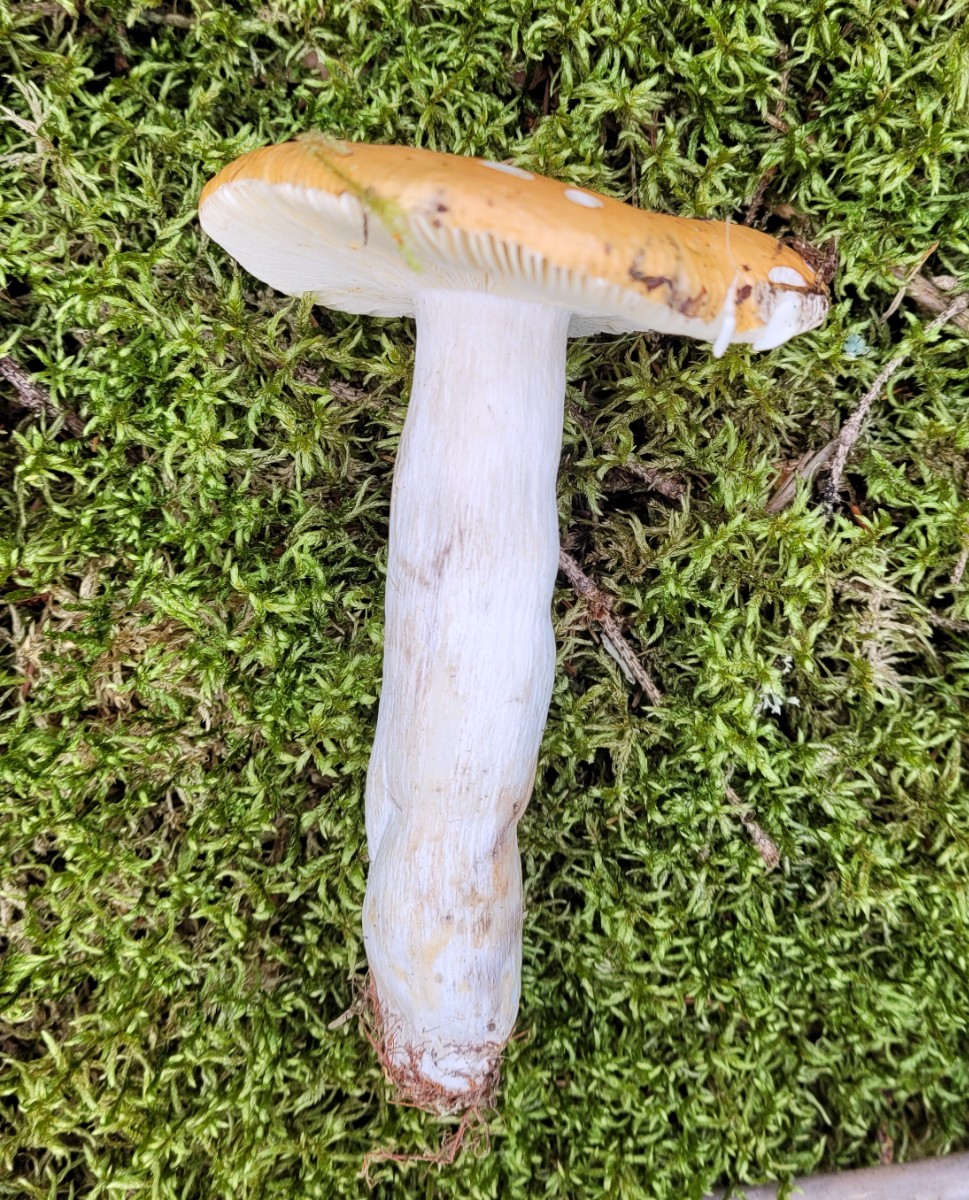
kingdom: Fungi
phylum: Basidiomycota
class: Agaricomycetes
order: Russulales
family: Russulaceae
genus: Russula
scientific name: Russula decolorans
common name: afblegende skørhat
